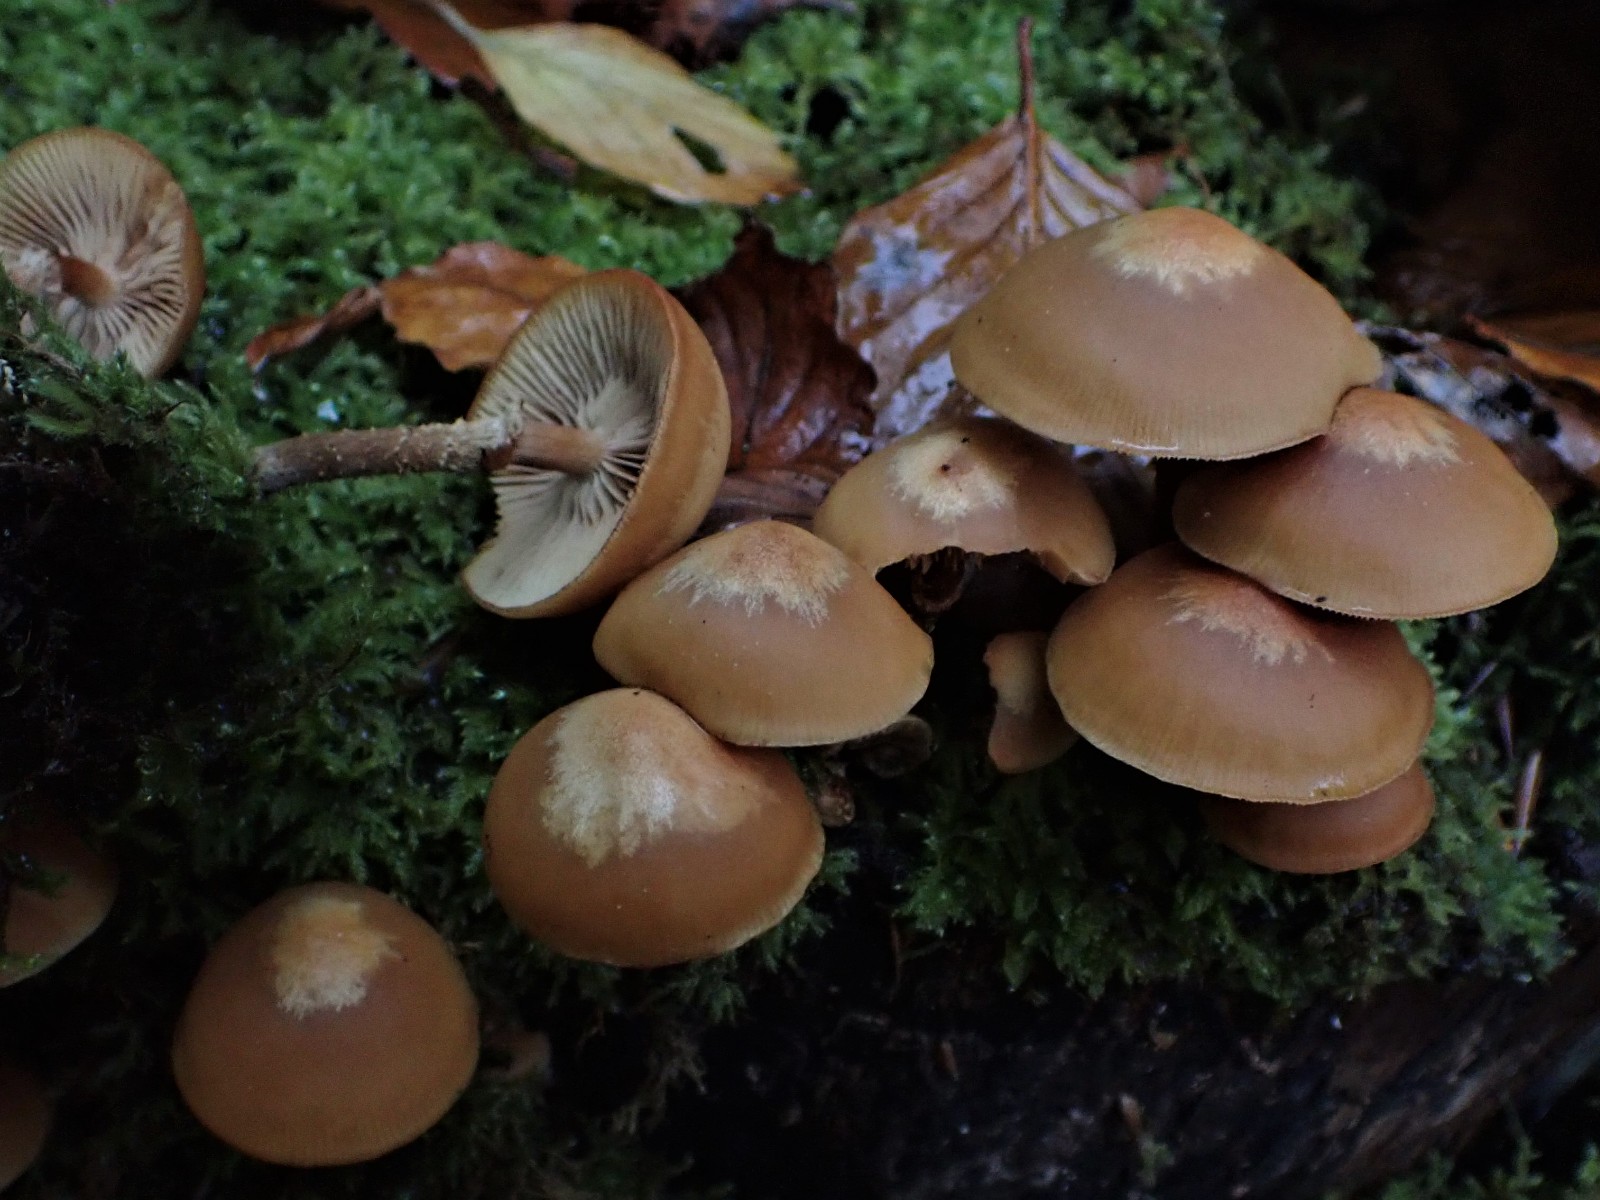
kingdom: Fungi
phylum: Basidiomycota
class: Agaricomycetes
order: Agaricales
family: Strophariaceae
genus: Kuehneromyces
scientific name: Kuehneromyces mutabilis
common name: foranderlig skælhat
